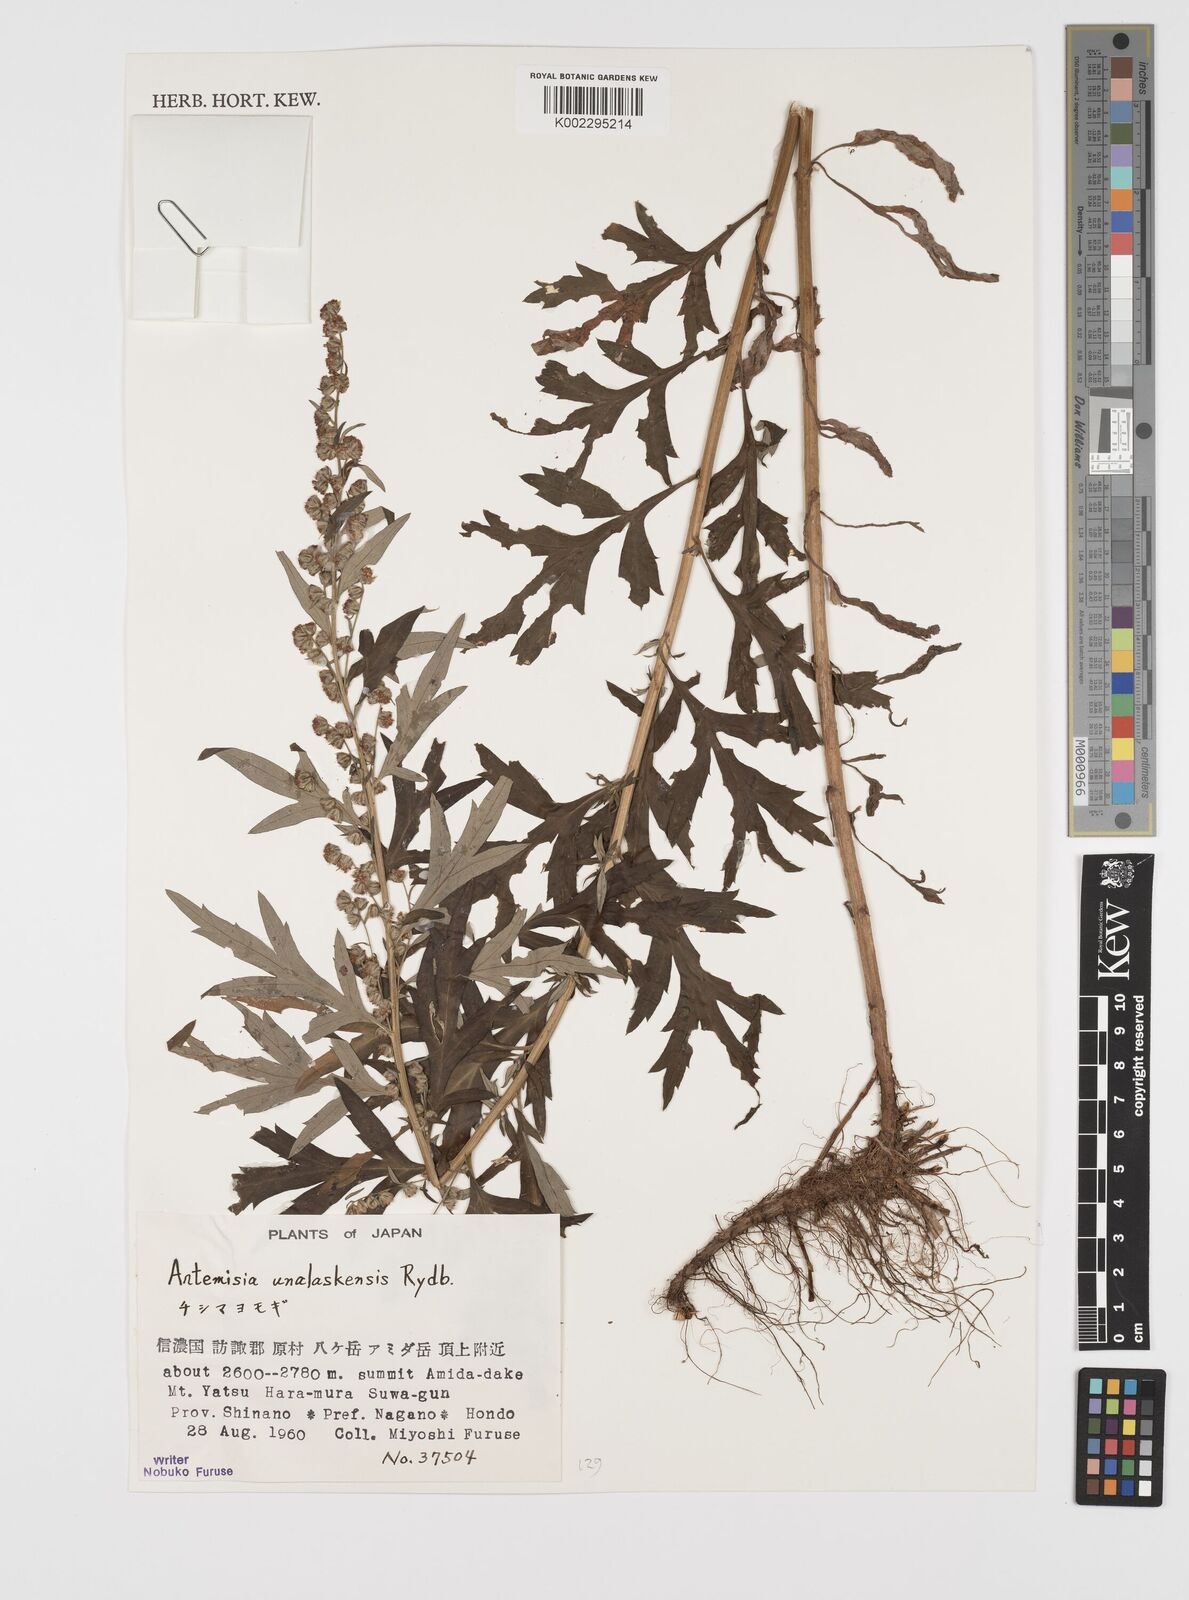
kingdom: Plantae
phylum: Tracheophyta
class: Magnoliopsida
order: Asterales
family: Asteraceae
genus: Artemisia
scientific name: Artemisia tilesii
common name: Aleutian mugwort
